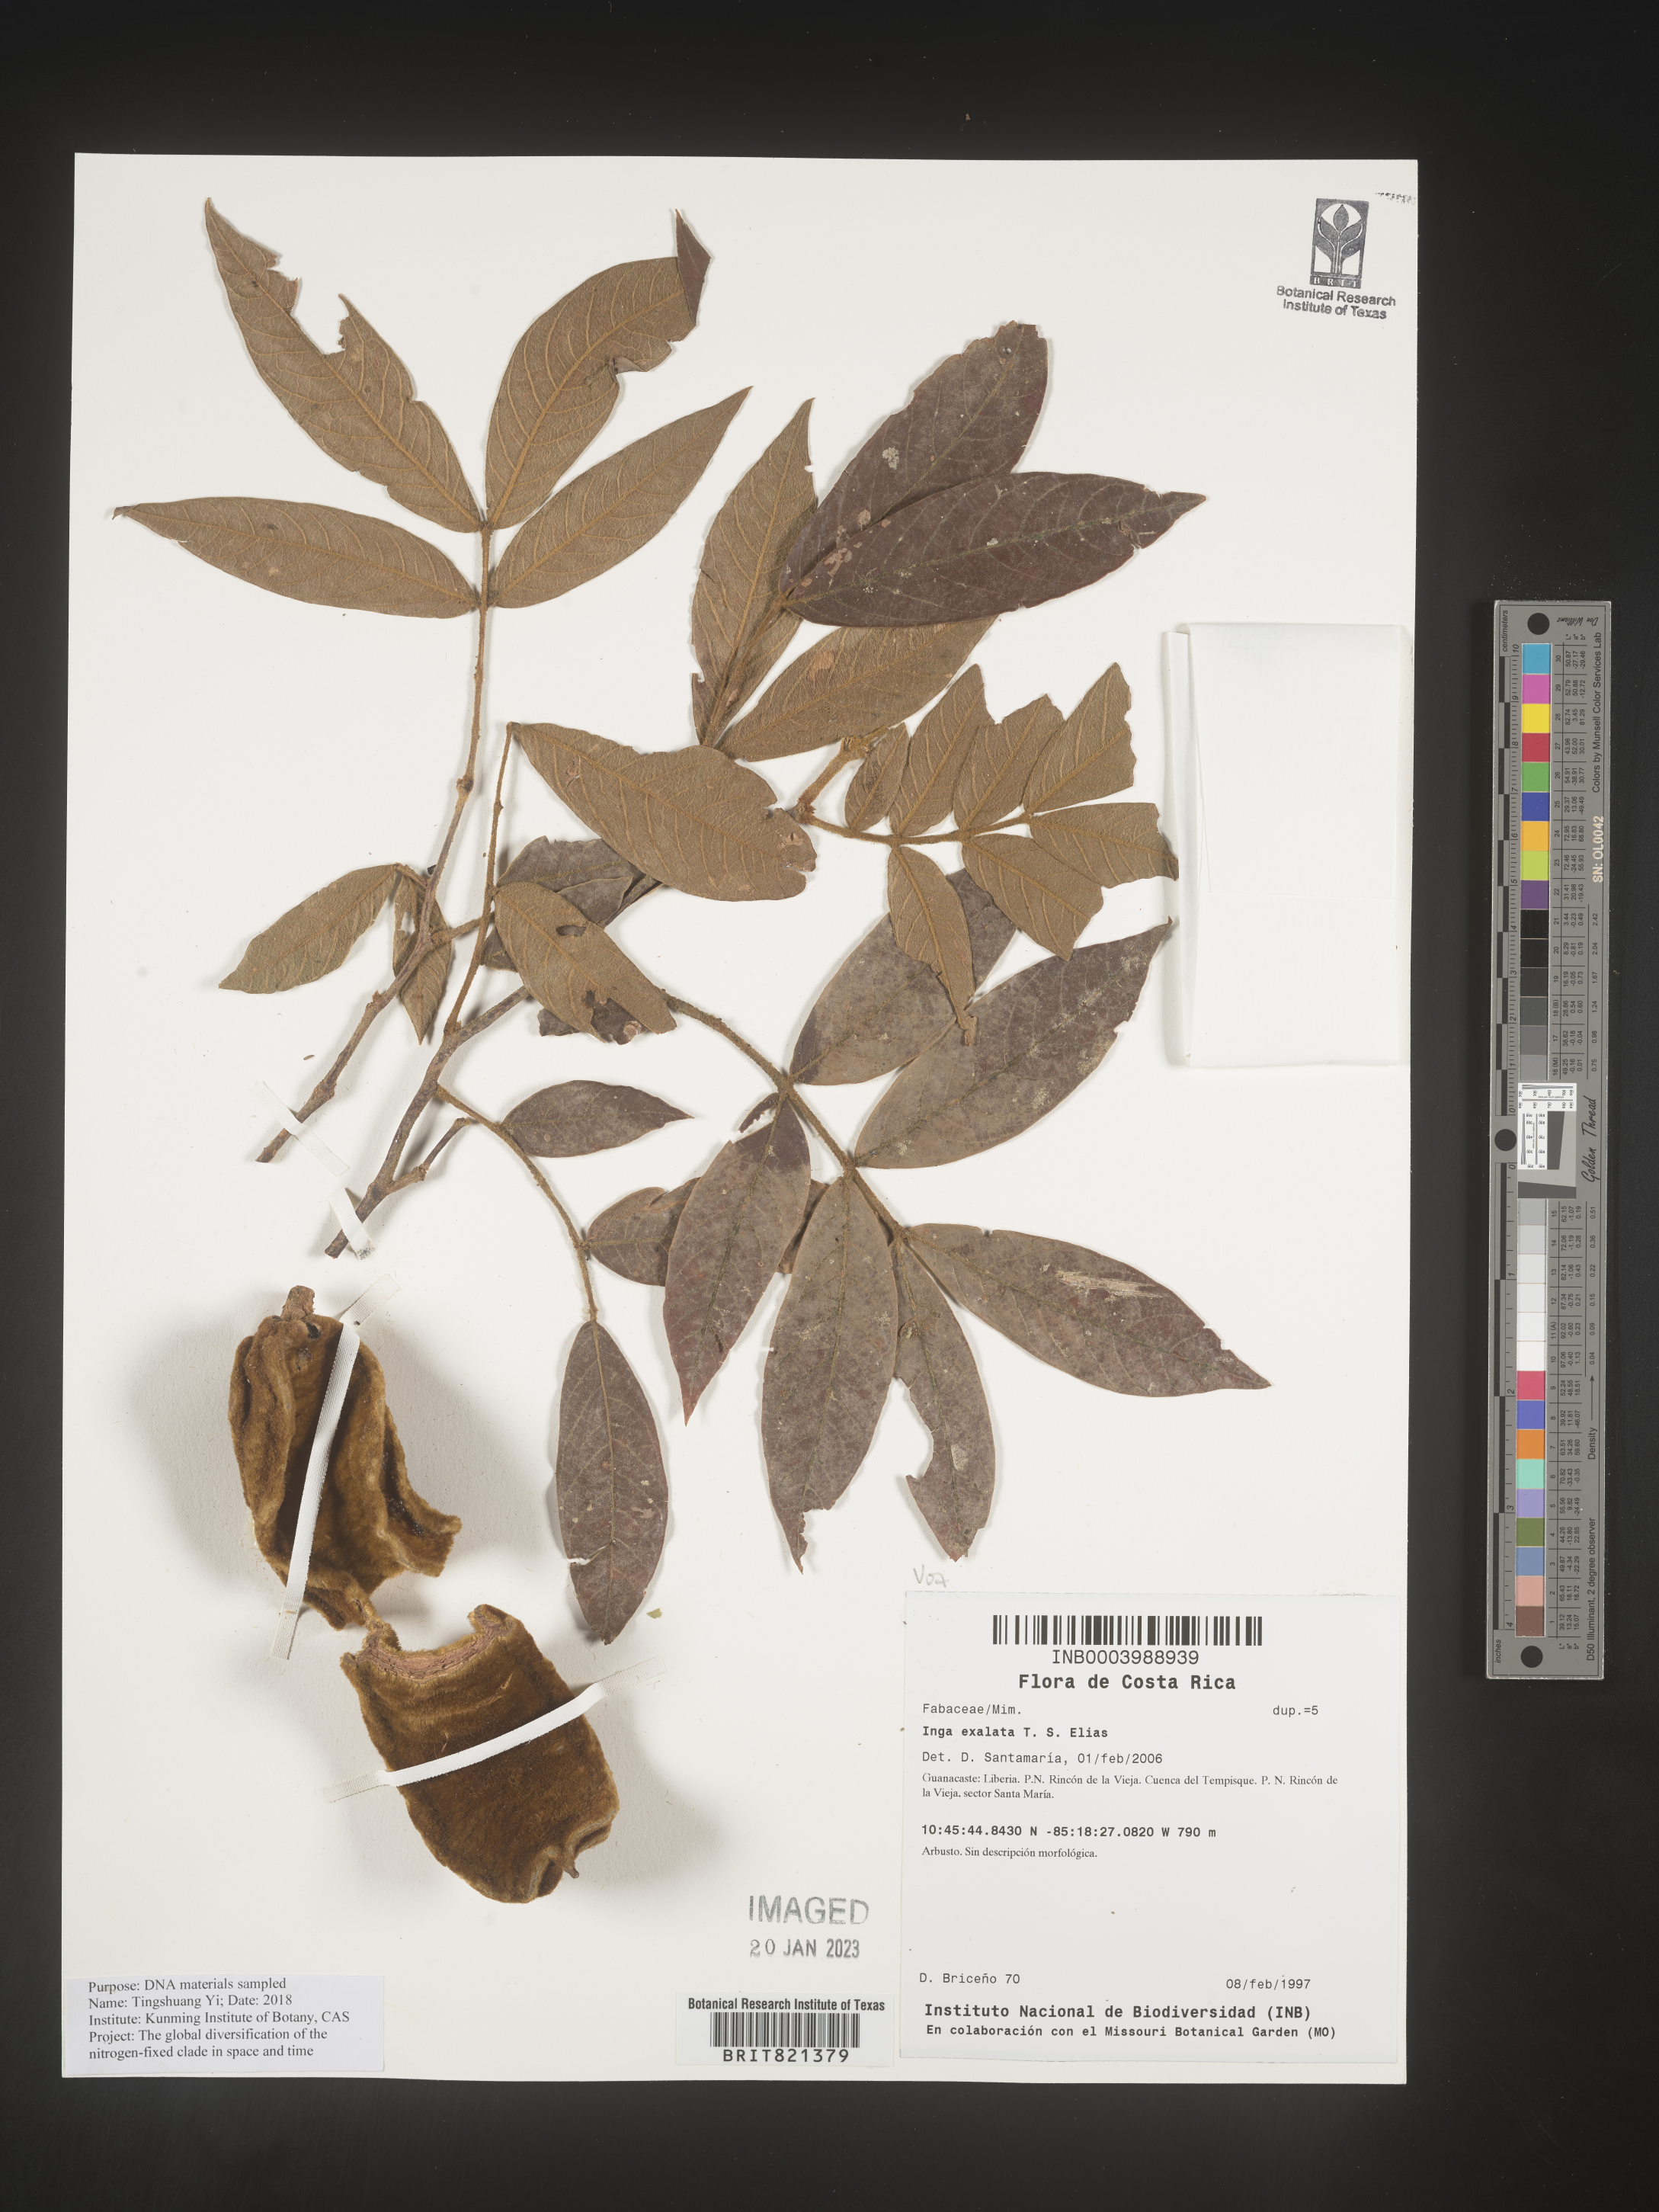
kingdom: Plantae
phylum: Tracheophyta
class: Magnoliopsida
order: Fabales
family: Fabaceae
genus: Inga
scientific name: Inga
